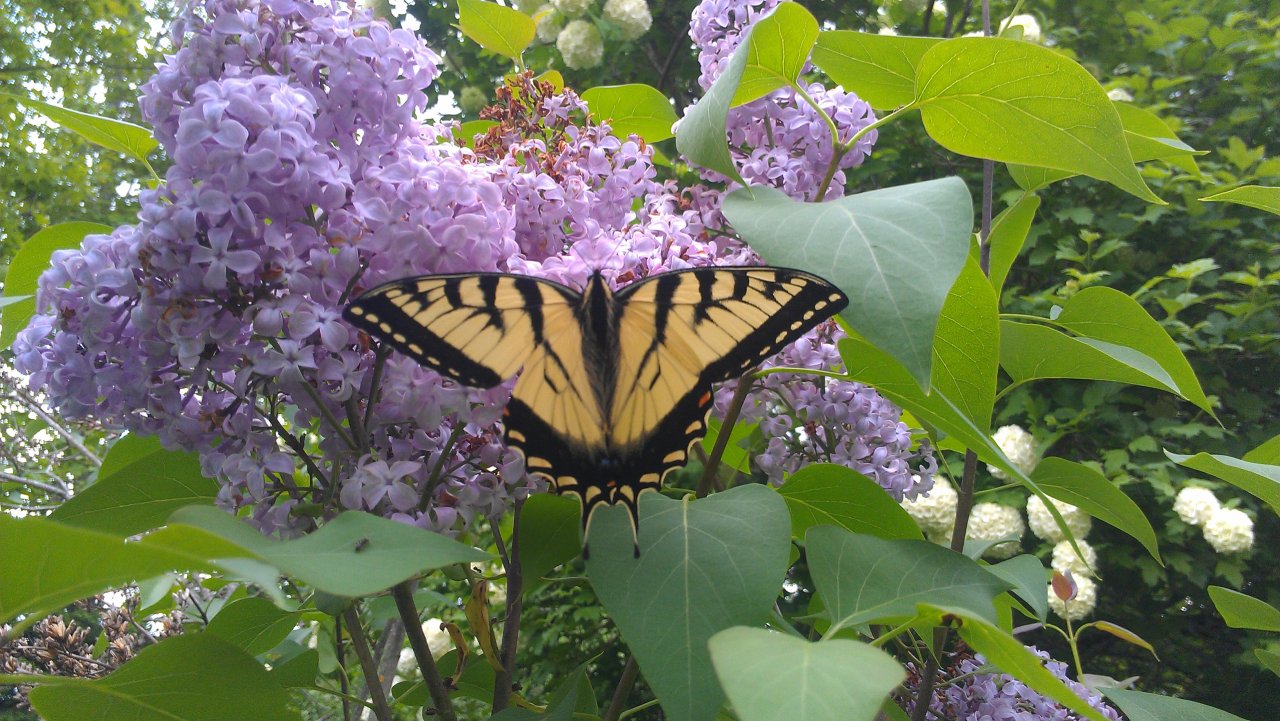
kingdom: Animalia
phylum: Arthropoda
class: Insecta
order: Lepidoptera
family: Papilionidae
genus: Pterourus
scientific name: Pterourus canadensis
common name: Canadian Tiger Swallowtail
